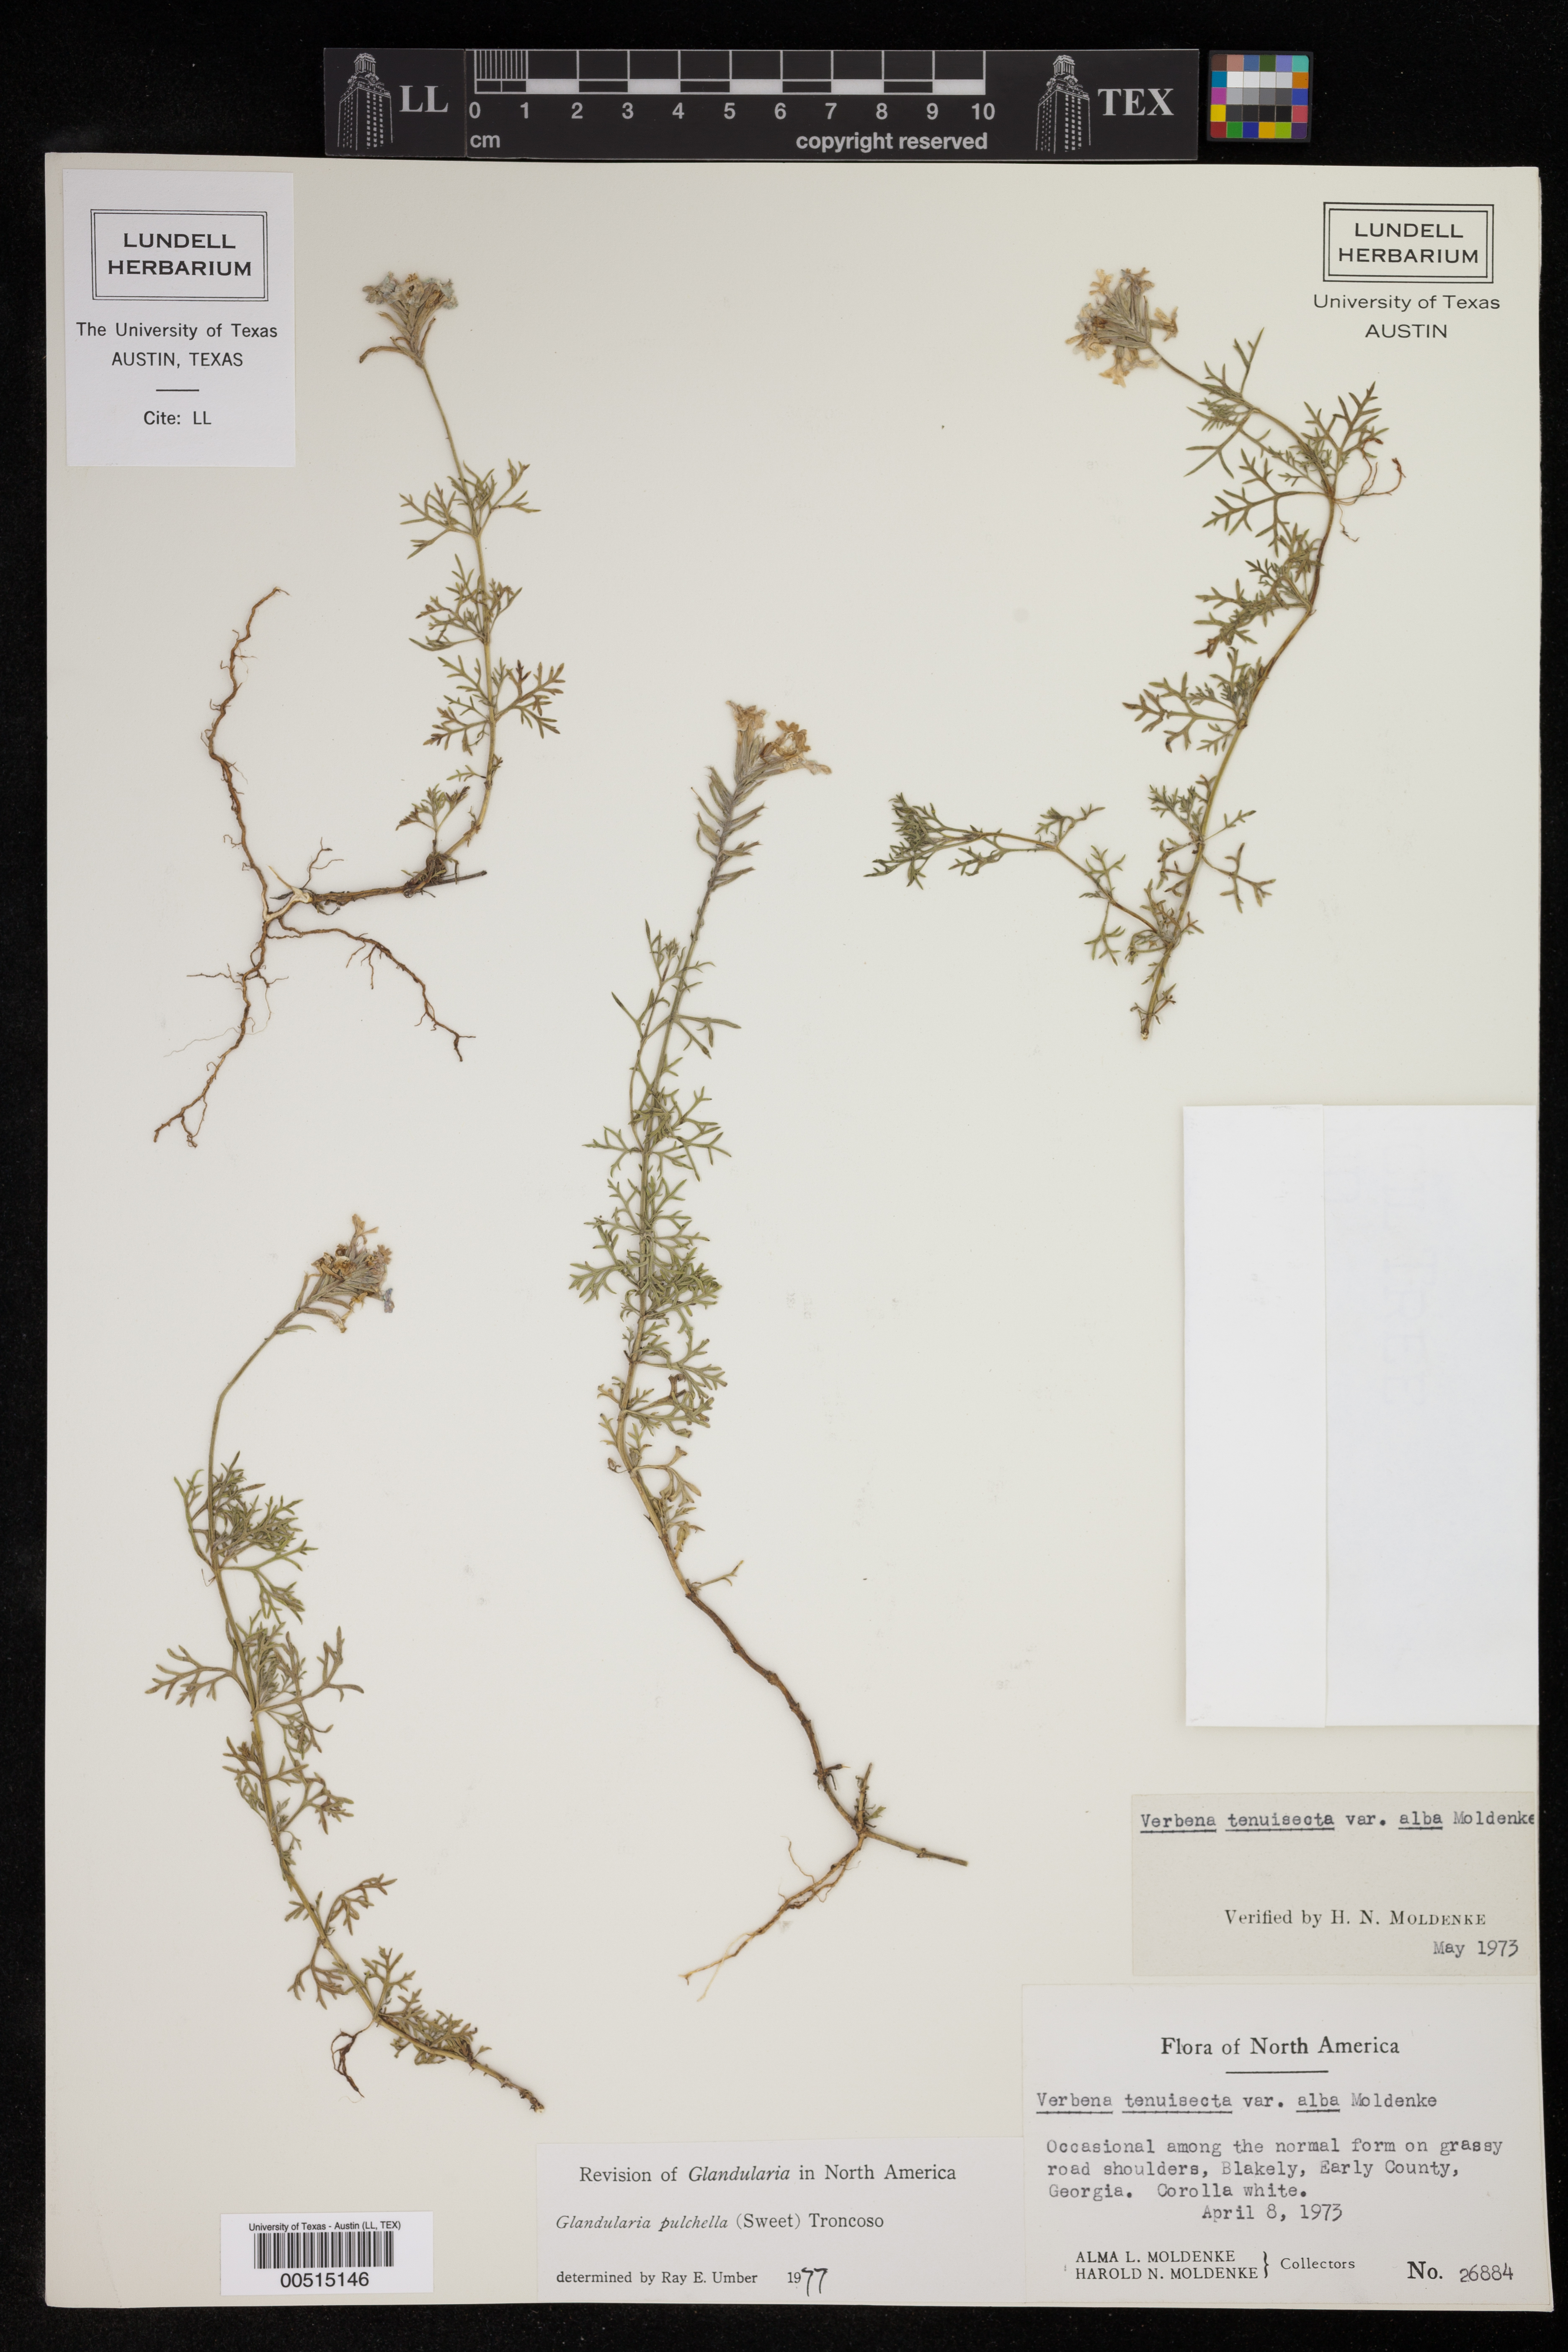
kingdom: Plantae
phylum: Tracheophyta
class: Magnoliopsida
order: Lamiales
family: Verbenaceae
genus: Verbena
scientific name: Verbena tenera
